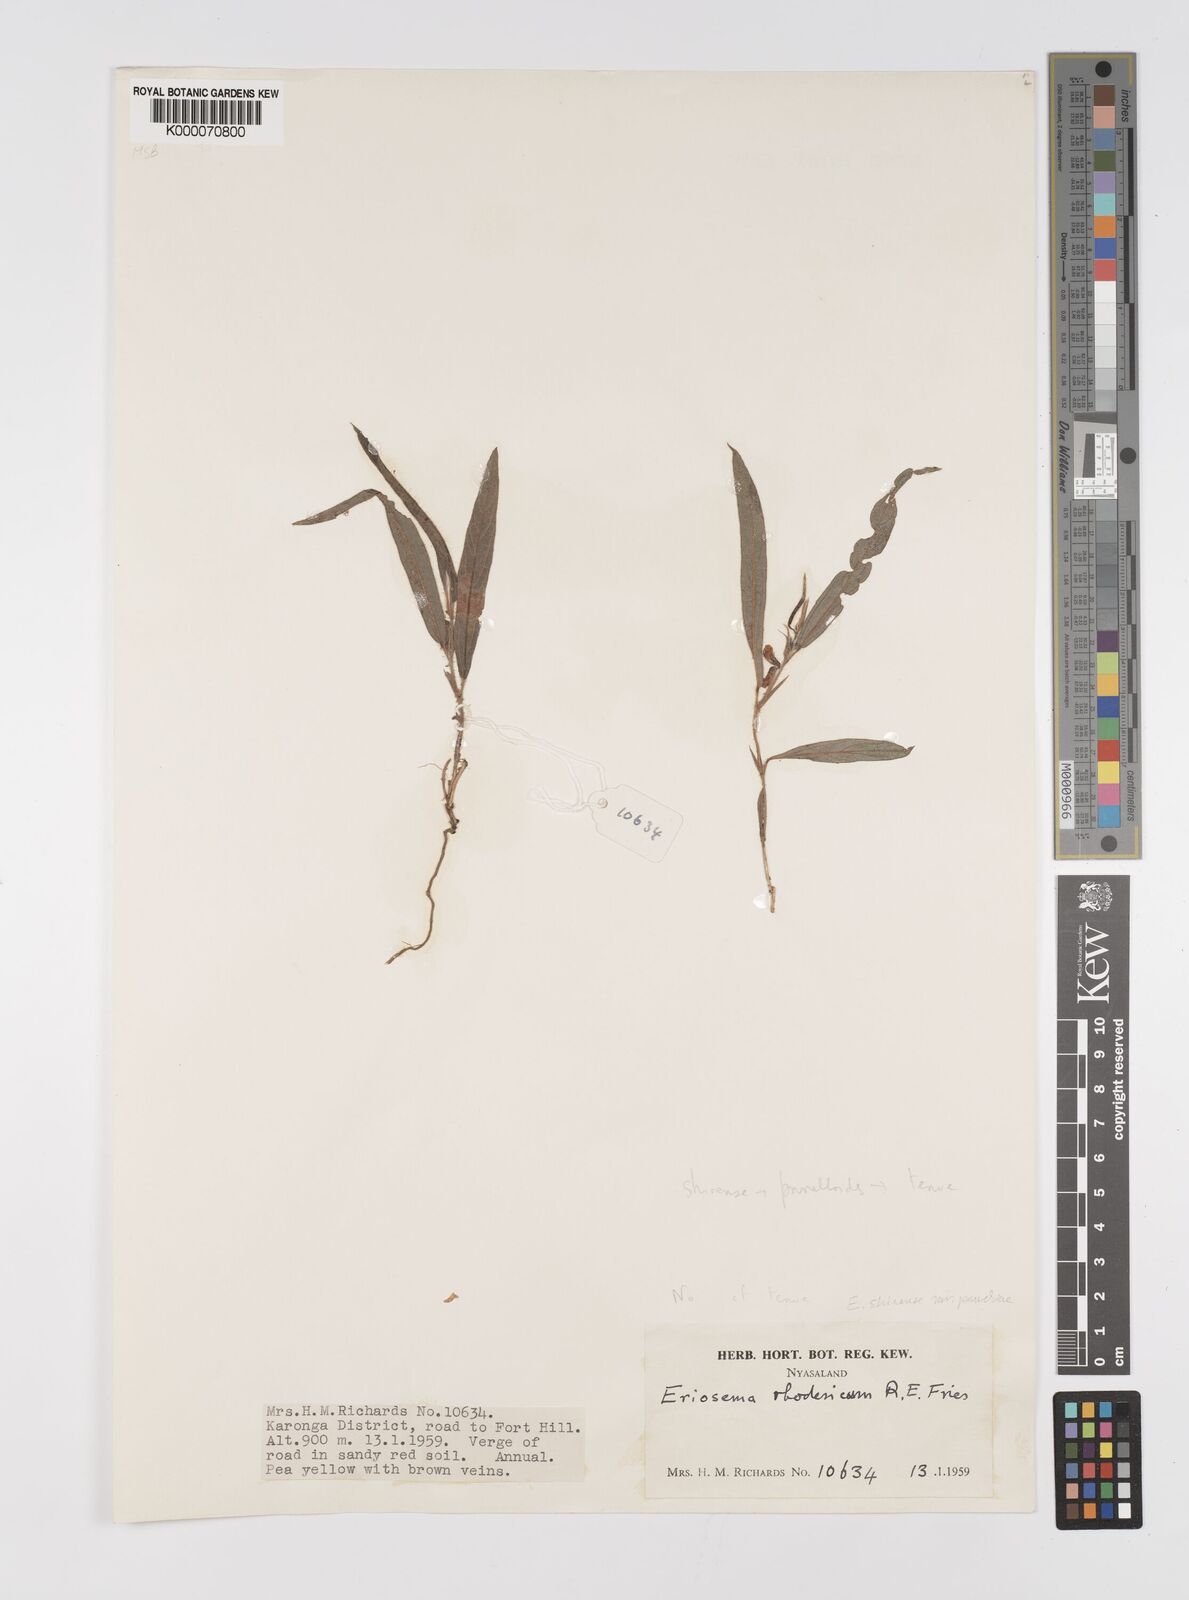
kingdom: Plantae
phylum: Tracheophyta
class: Magnoliopsida
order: Fabales
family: Fabaceae
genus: Eriosema
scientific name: Eriosema shirense
